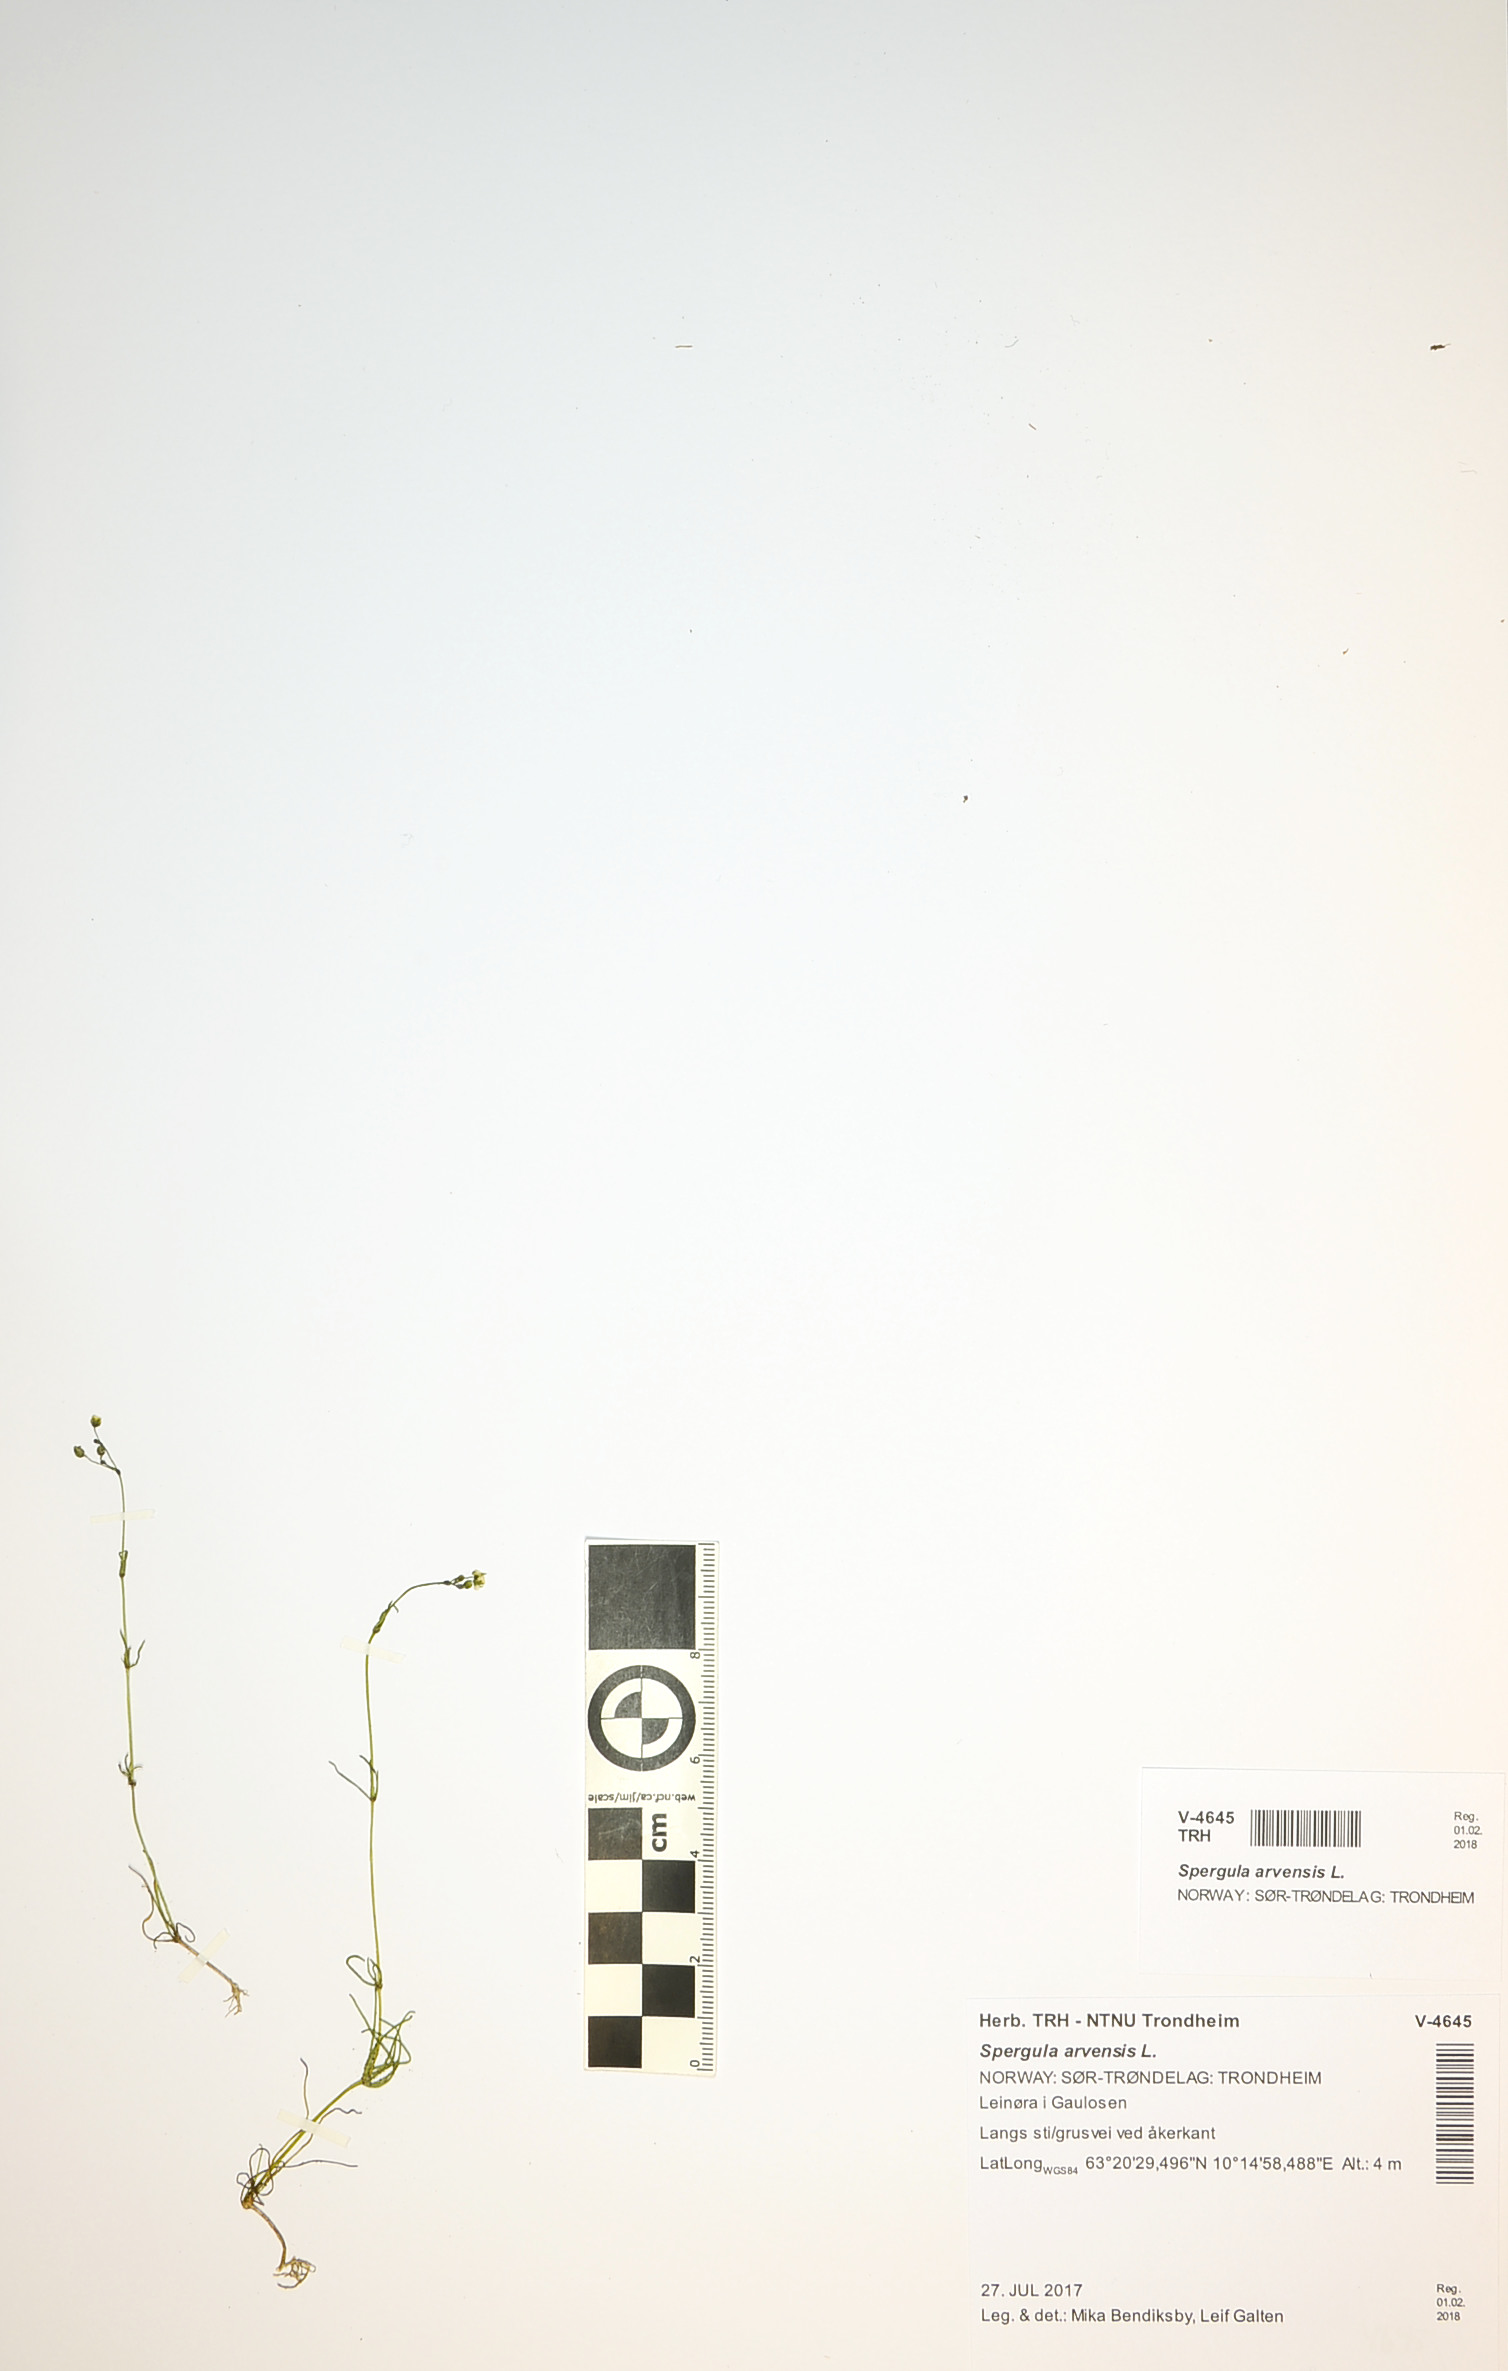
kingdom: Plantae
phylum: Tracheophyta
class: Magnoliopsida
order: Caryophyllales
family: Caryophyllaceae
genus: Spergula
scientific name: Spergula arvensis
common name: Corn spurrey
